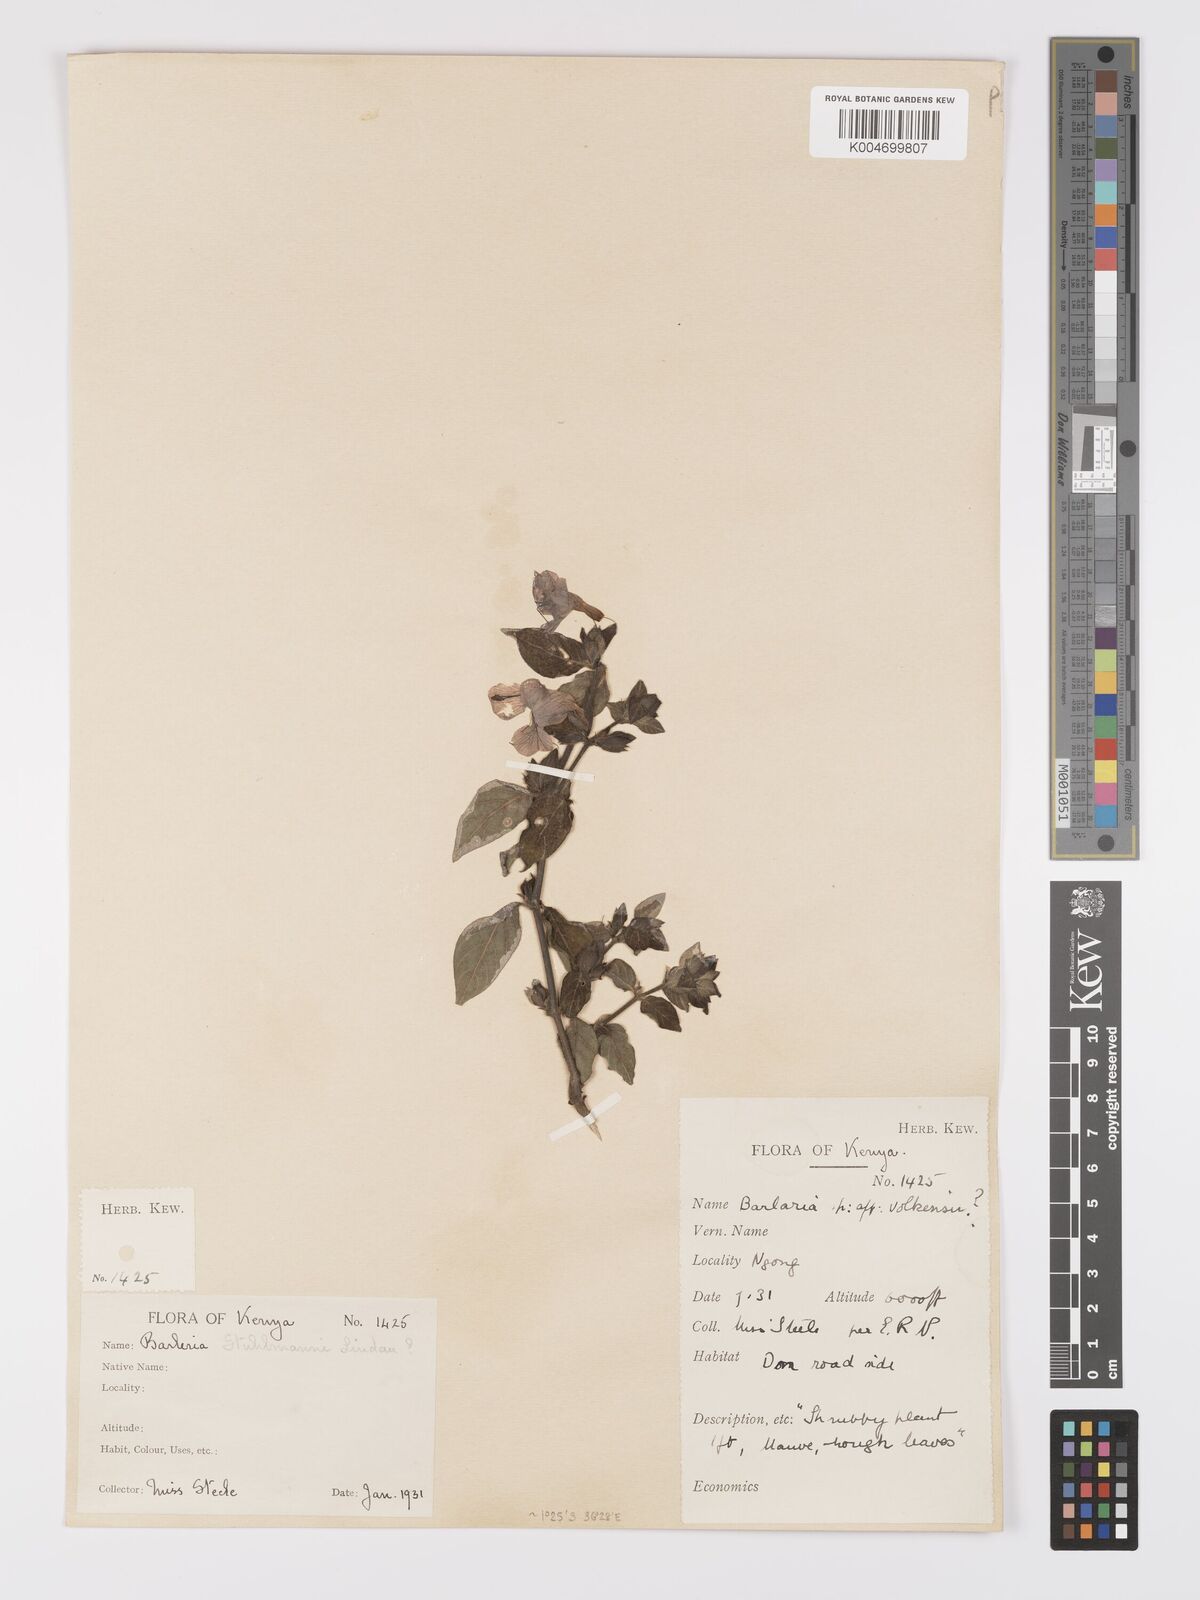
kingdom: Plantae
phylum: Tracheophyta
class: Magnoliopsida
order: Lamiales
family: Acanthaceae
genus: Barleria
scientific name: Barleria ventricosa
